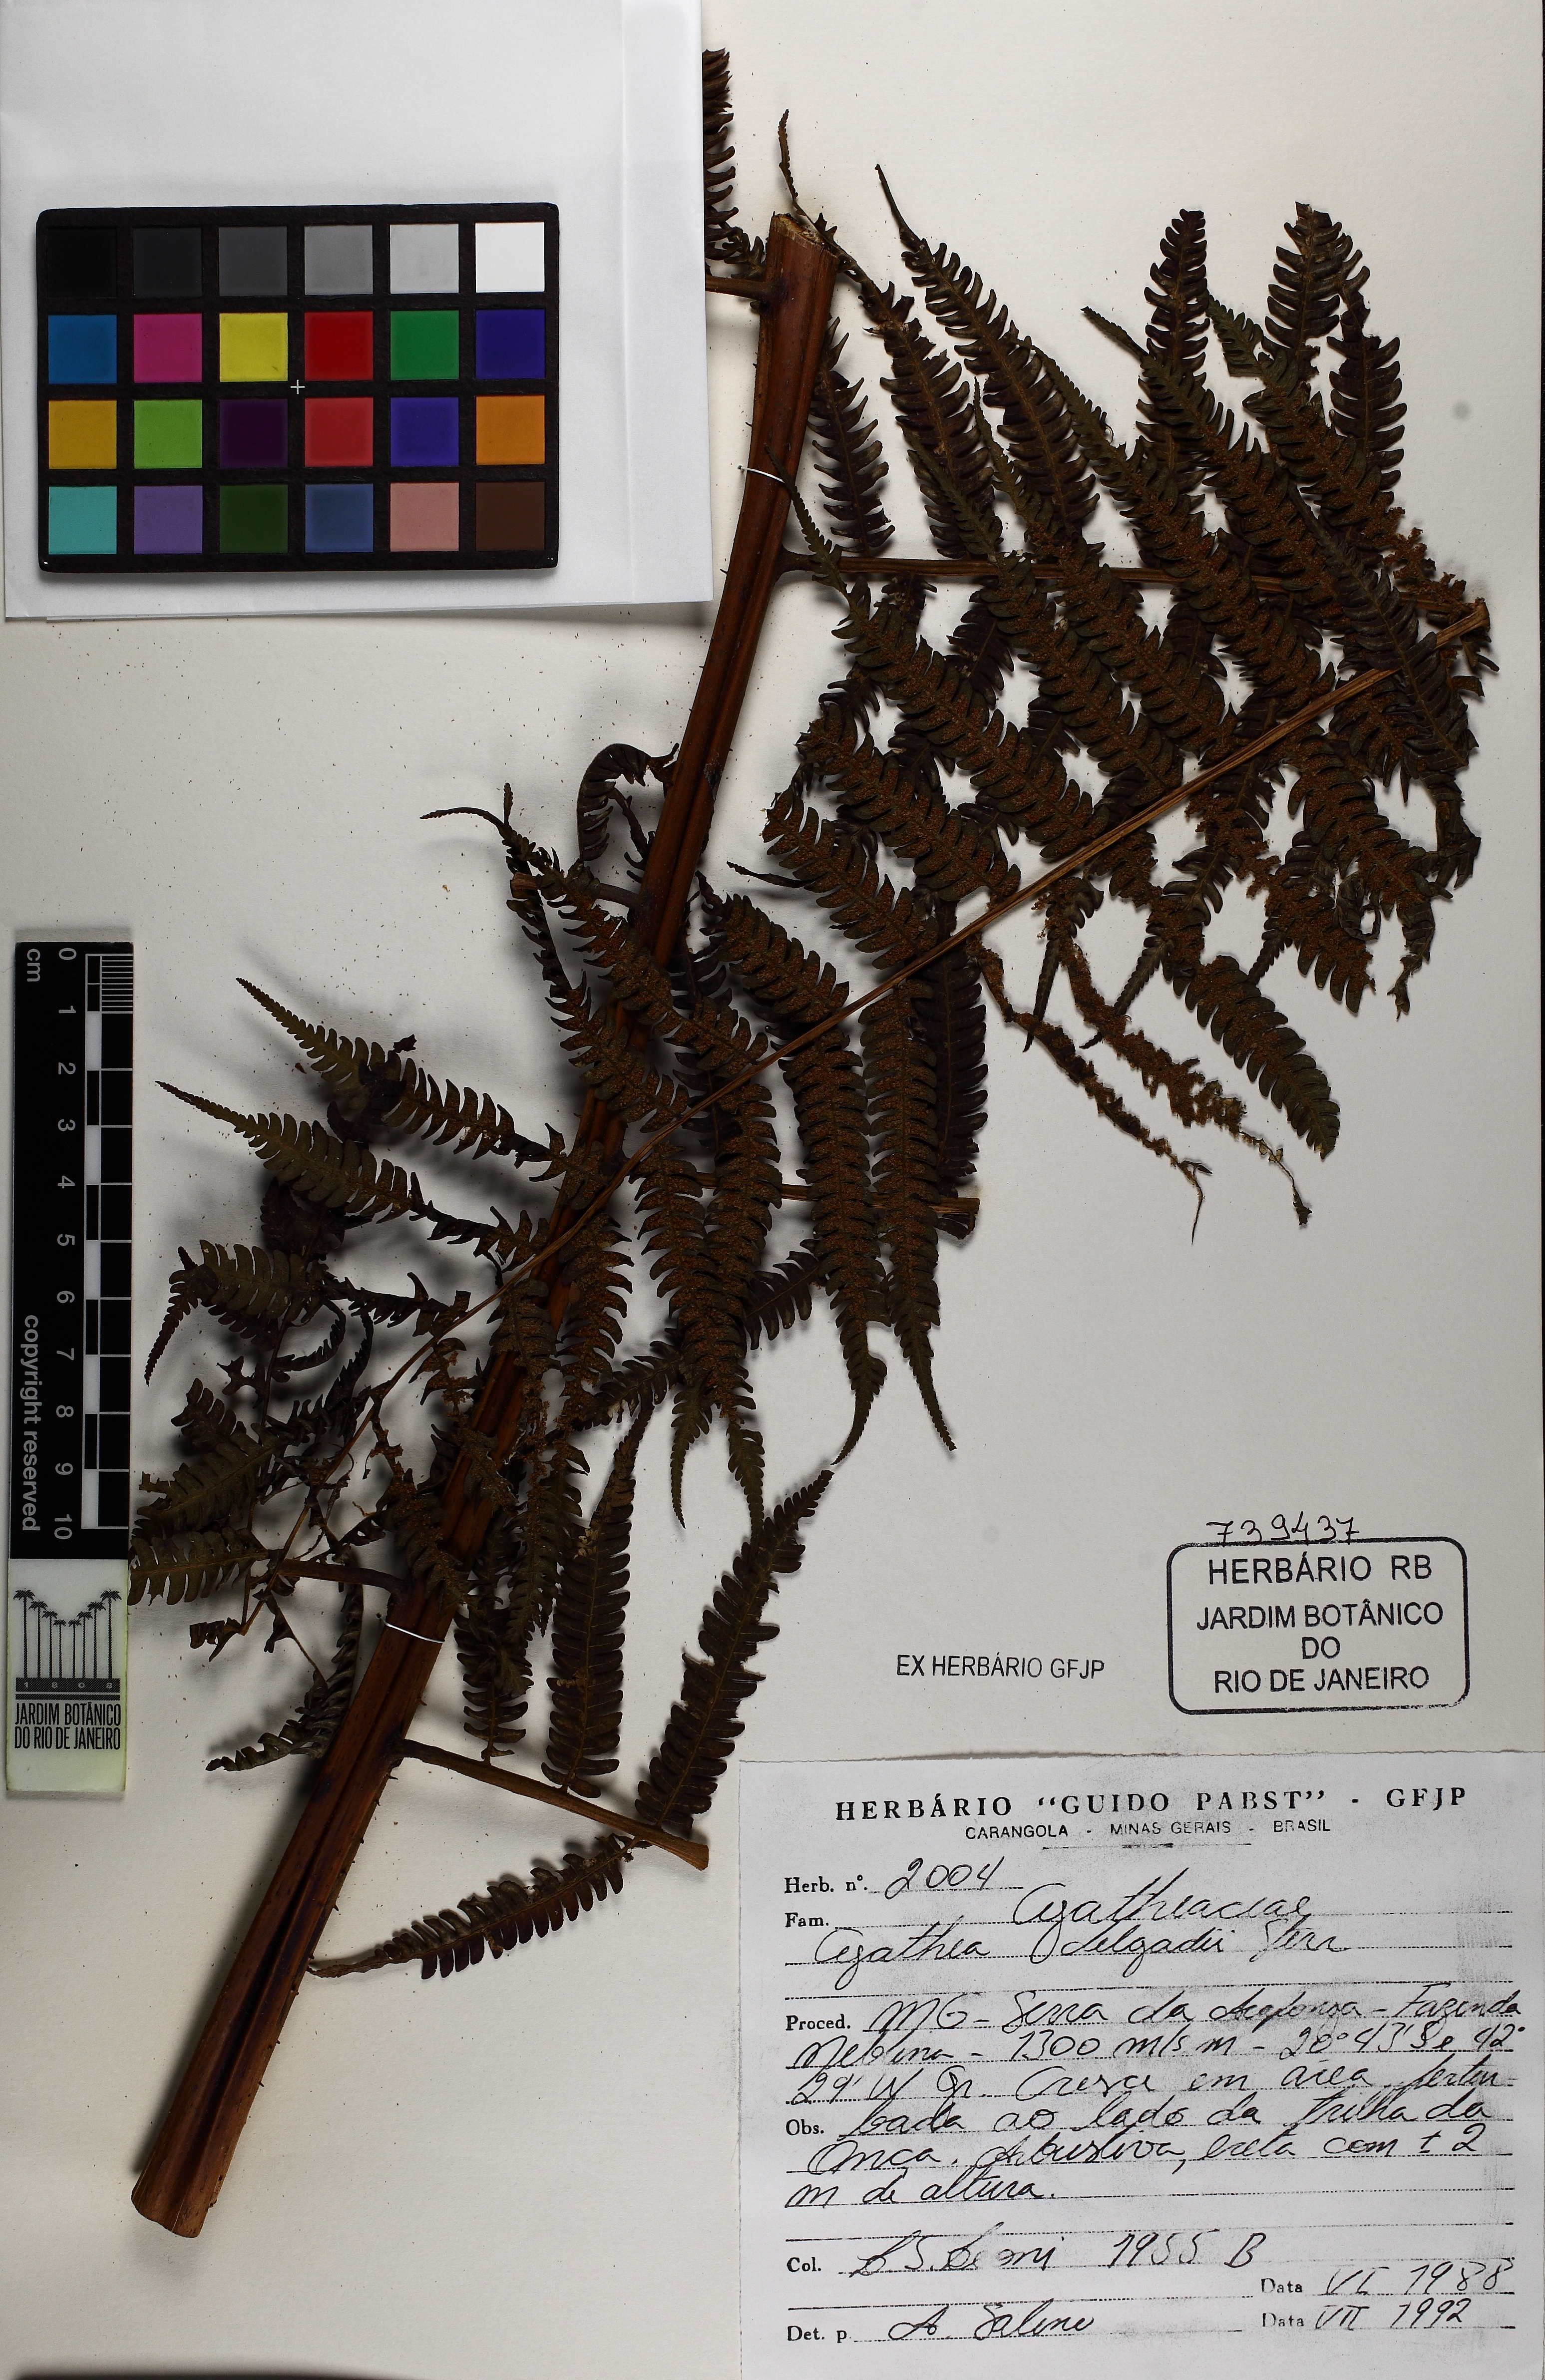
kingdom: Plantae
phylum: Tracheophyta
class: Polypodiopsida
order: Cyatheales
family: Cyatheaceae
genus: Cyathea
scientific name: Cyathea delgadii
